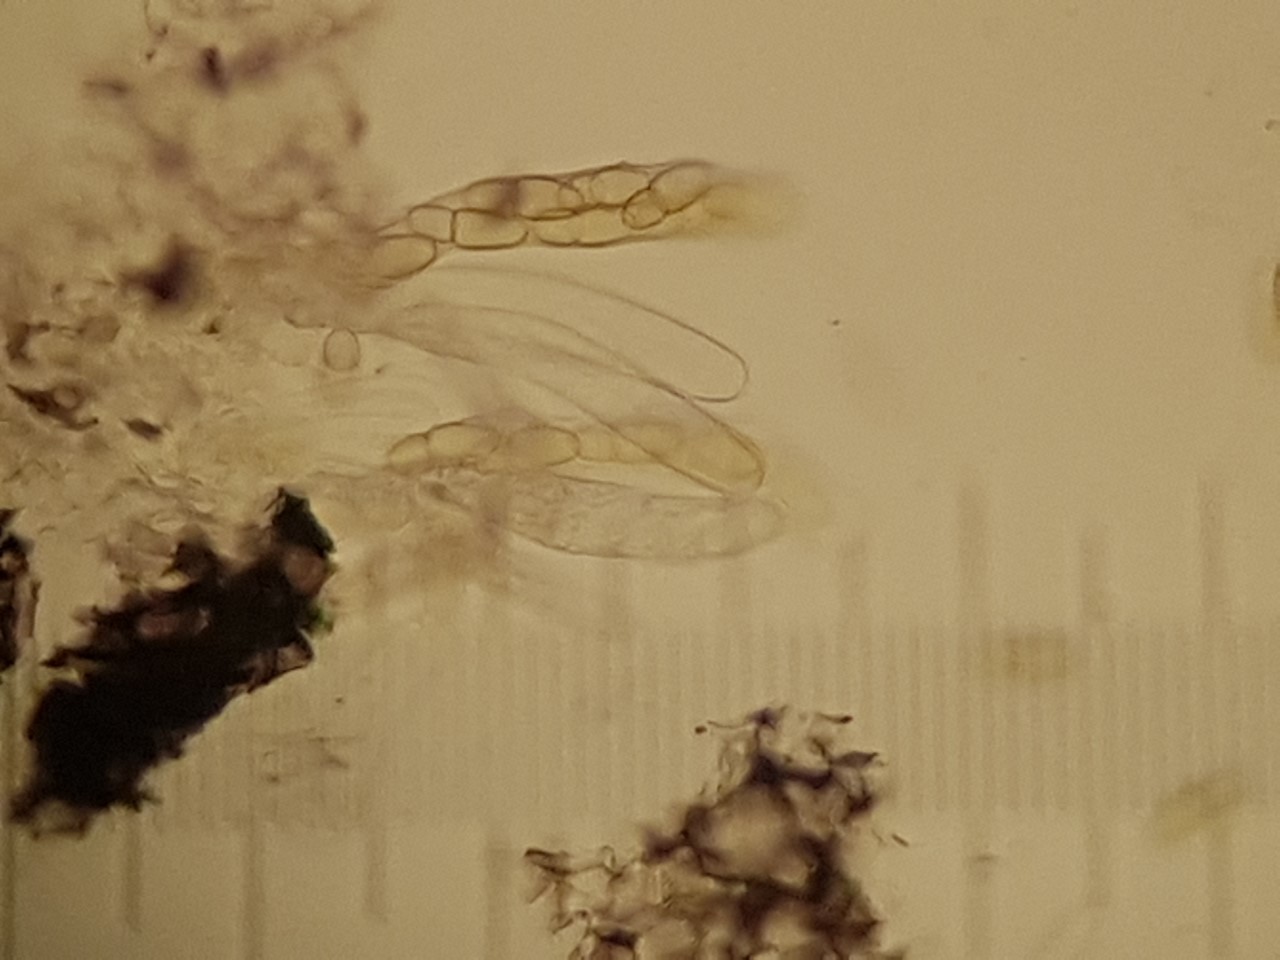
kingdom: Fungi
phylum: Ascomycota
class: Dothideomycetes
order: Dothideales
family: Dothideaceae
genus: Dothidea
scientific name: Dothidea sambuci
